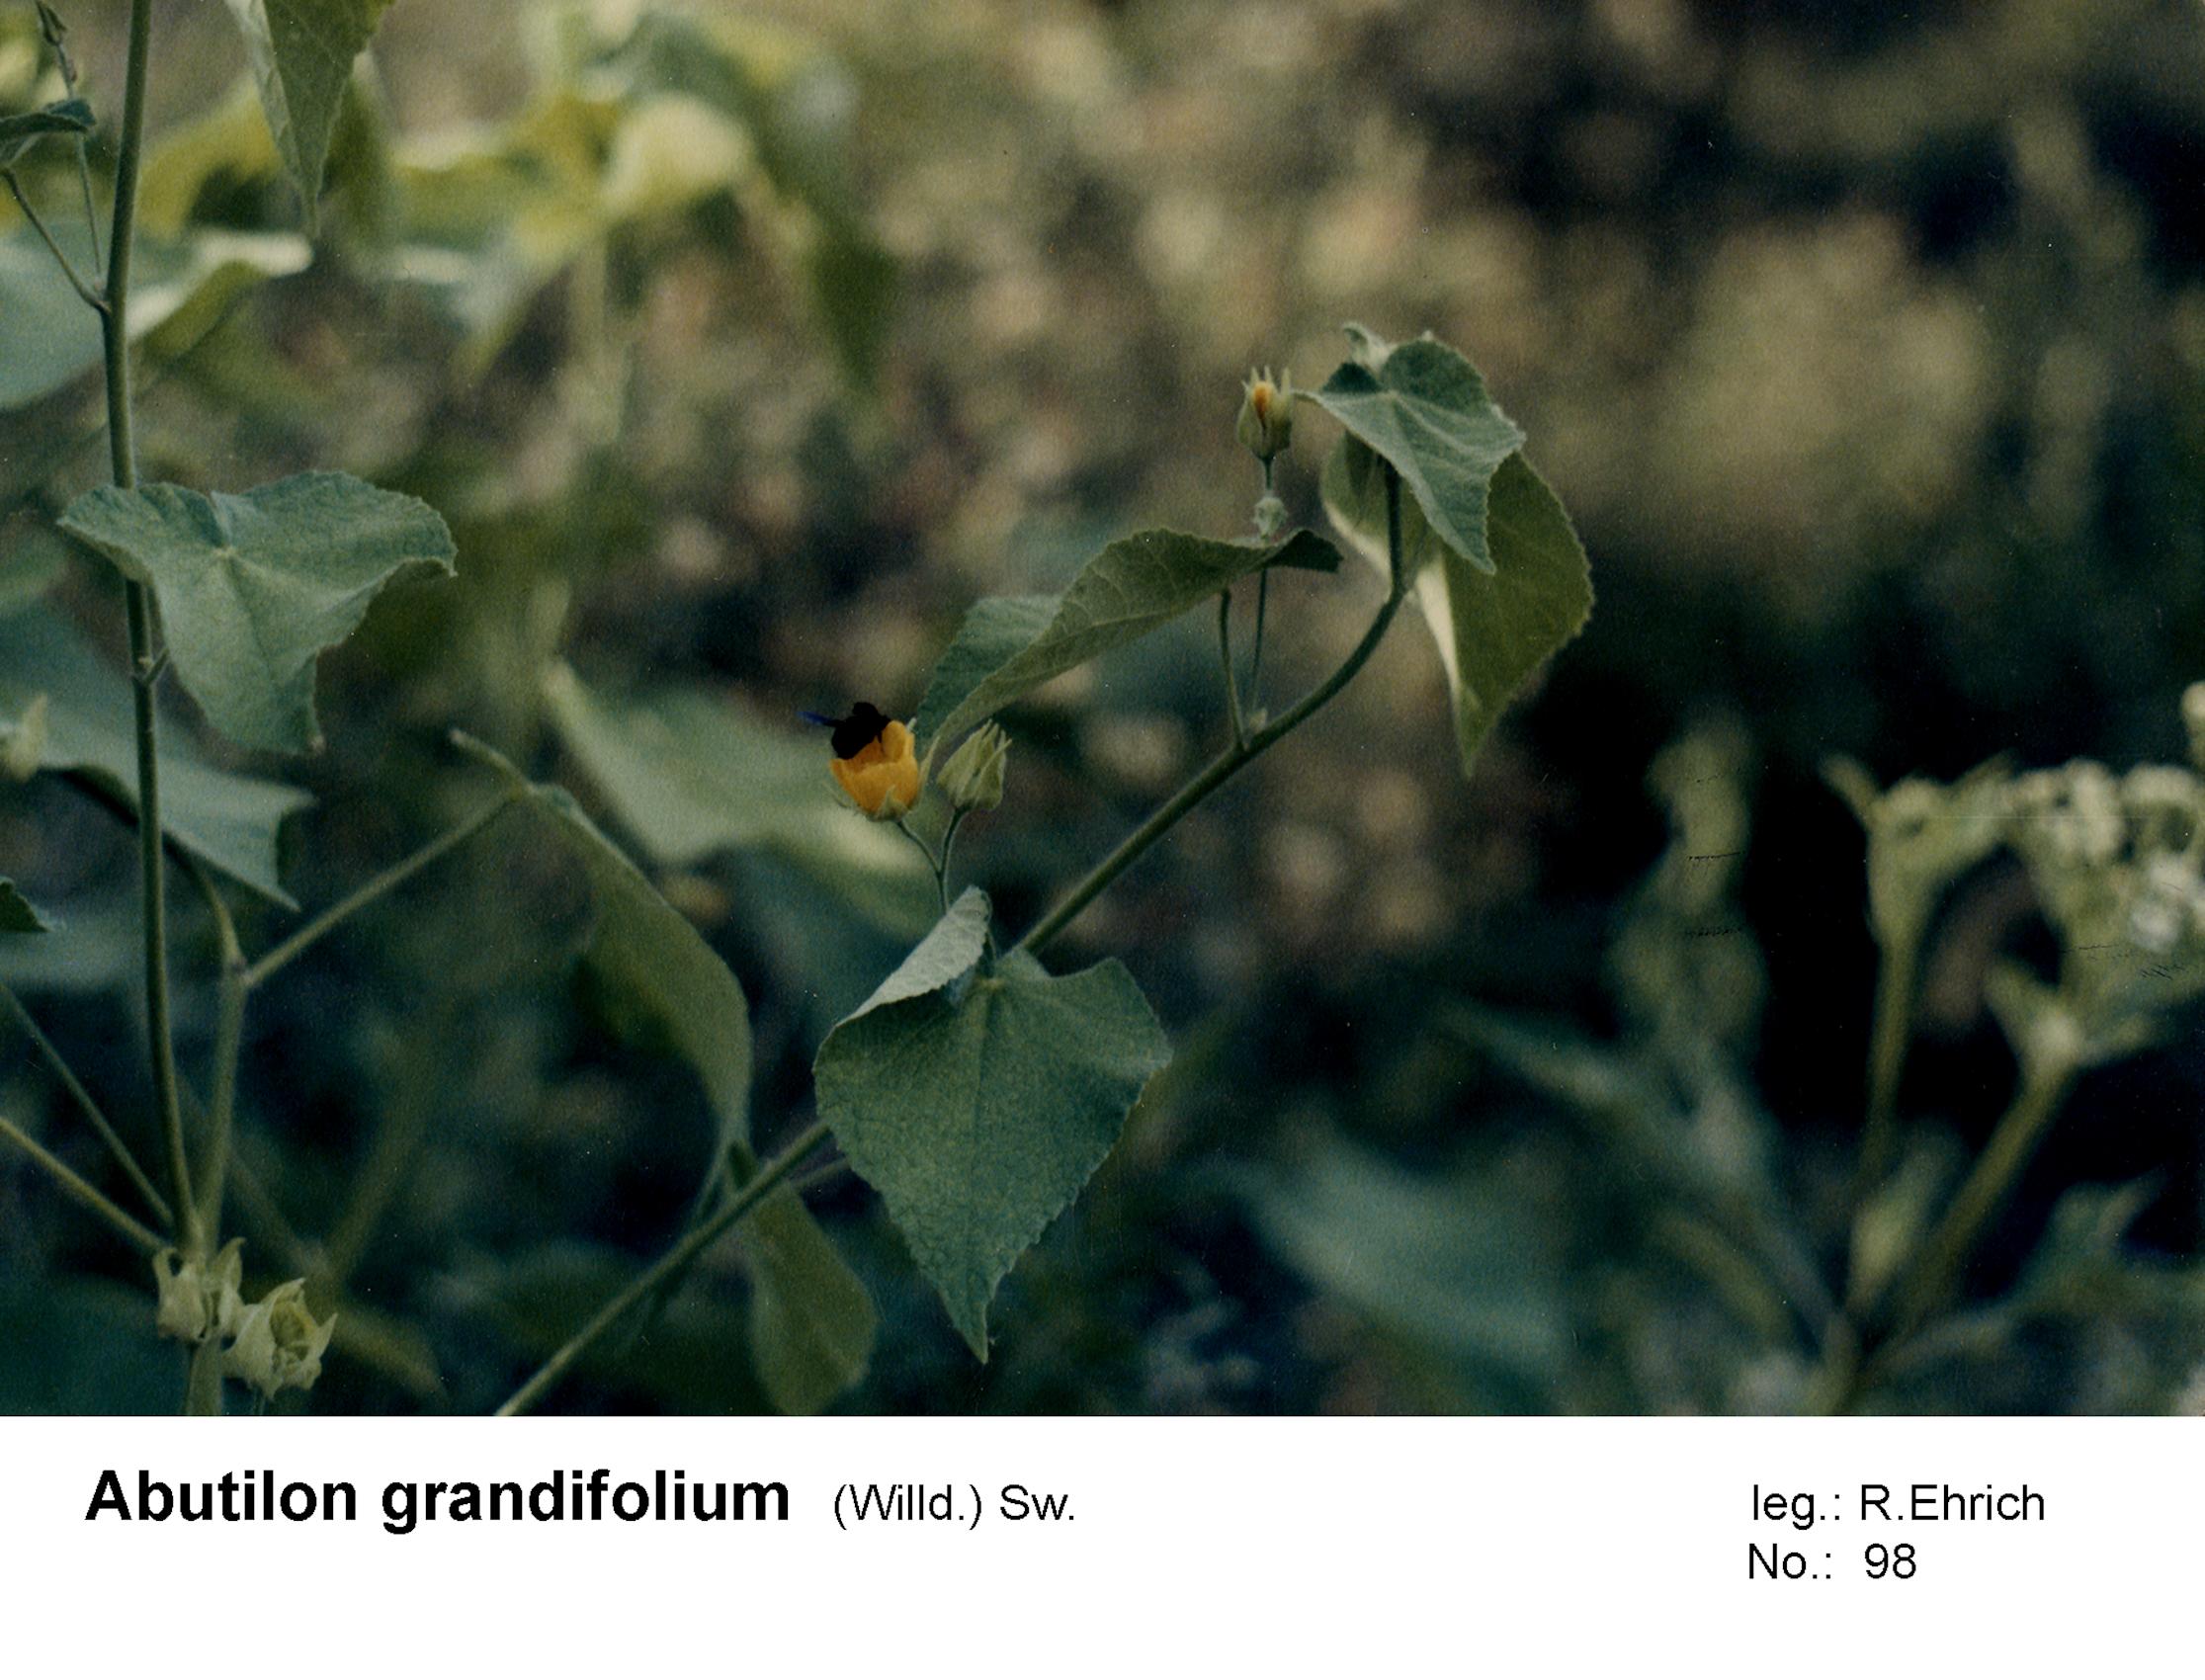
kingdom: Plantae
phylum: Tracheophyta
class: Magnoliopsida
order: Malvales
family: Malvaceae
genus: Abutilon
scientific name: Abutilon grandifolium
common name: Hairy abutilon
